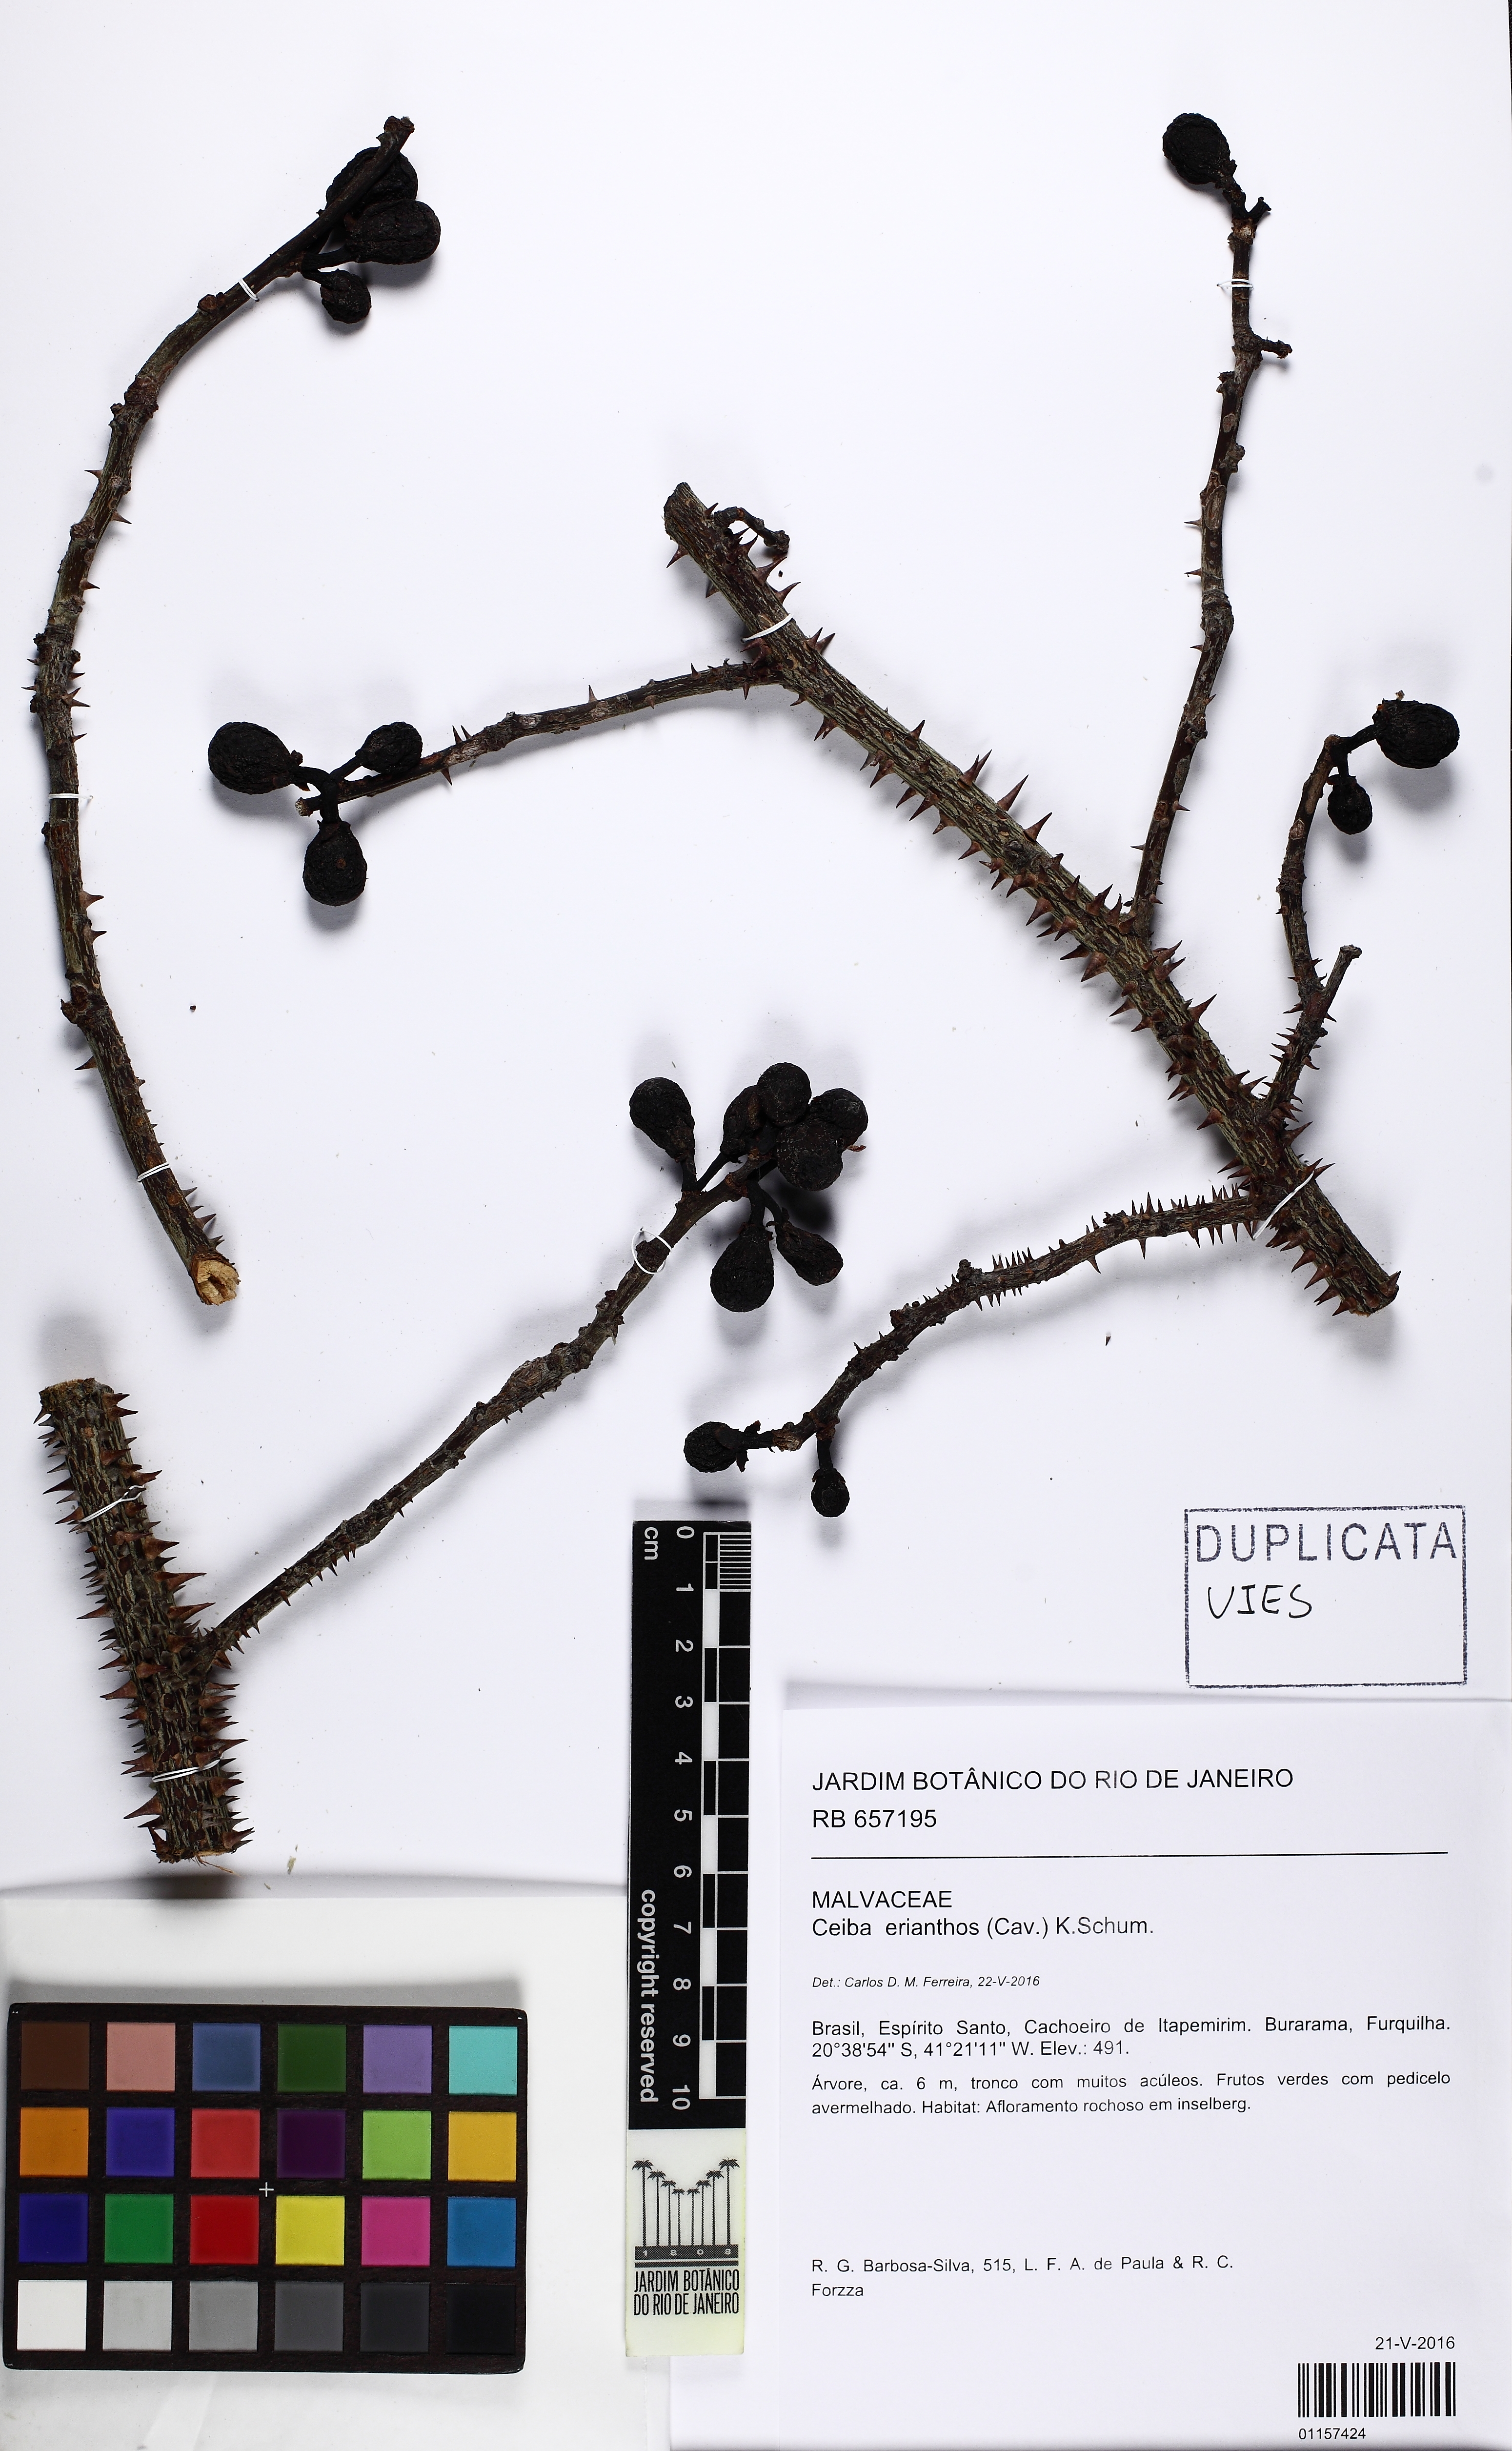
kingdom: Plantae
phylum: Tracheophyta
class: Magnoliopsida
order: Malvales
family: Malvaceae
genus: Ceiba
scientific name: Ceiba erianthos
